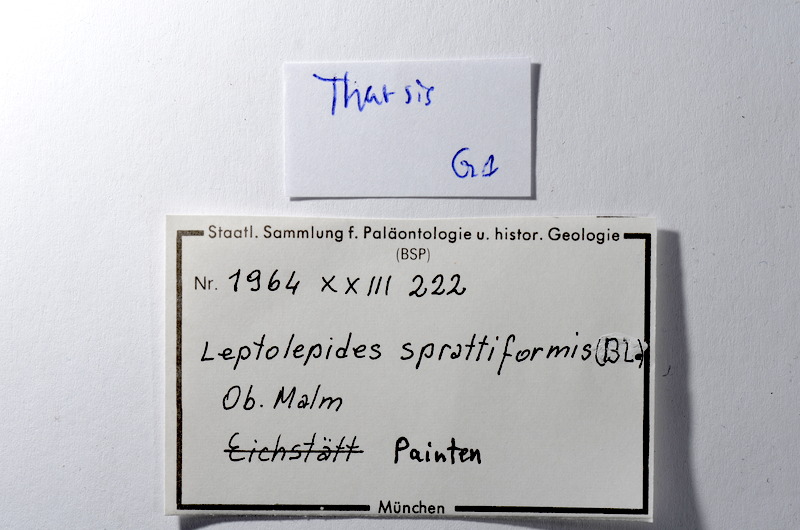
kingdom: Animalia
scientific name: Animalia
